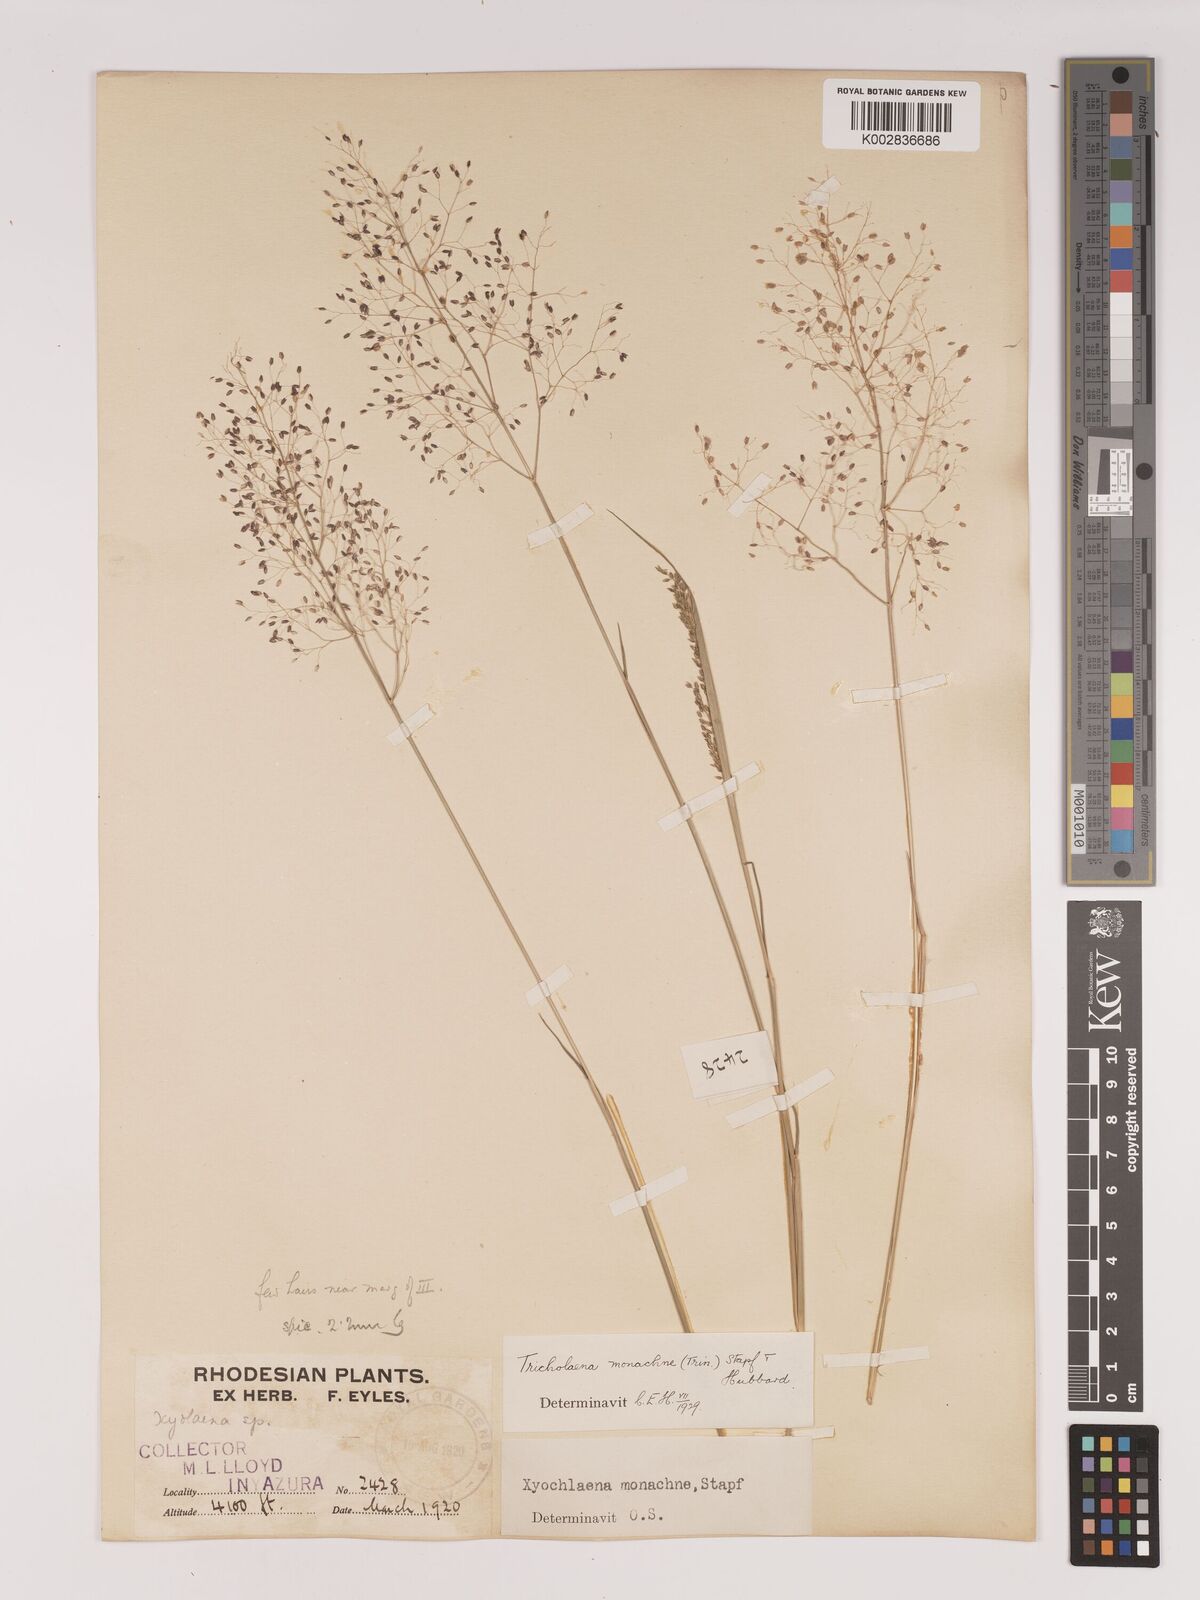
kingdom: Plantae
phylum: Tracheophyta
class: Liliopsida
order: Poales
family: Poaceae
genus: Tricholaena
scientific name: Tricholaena monachne
